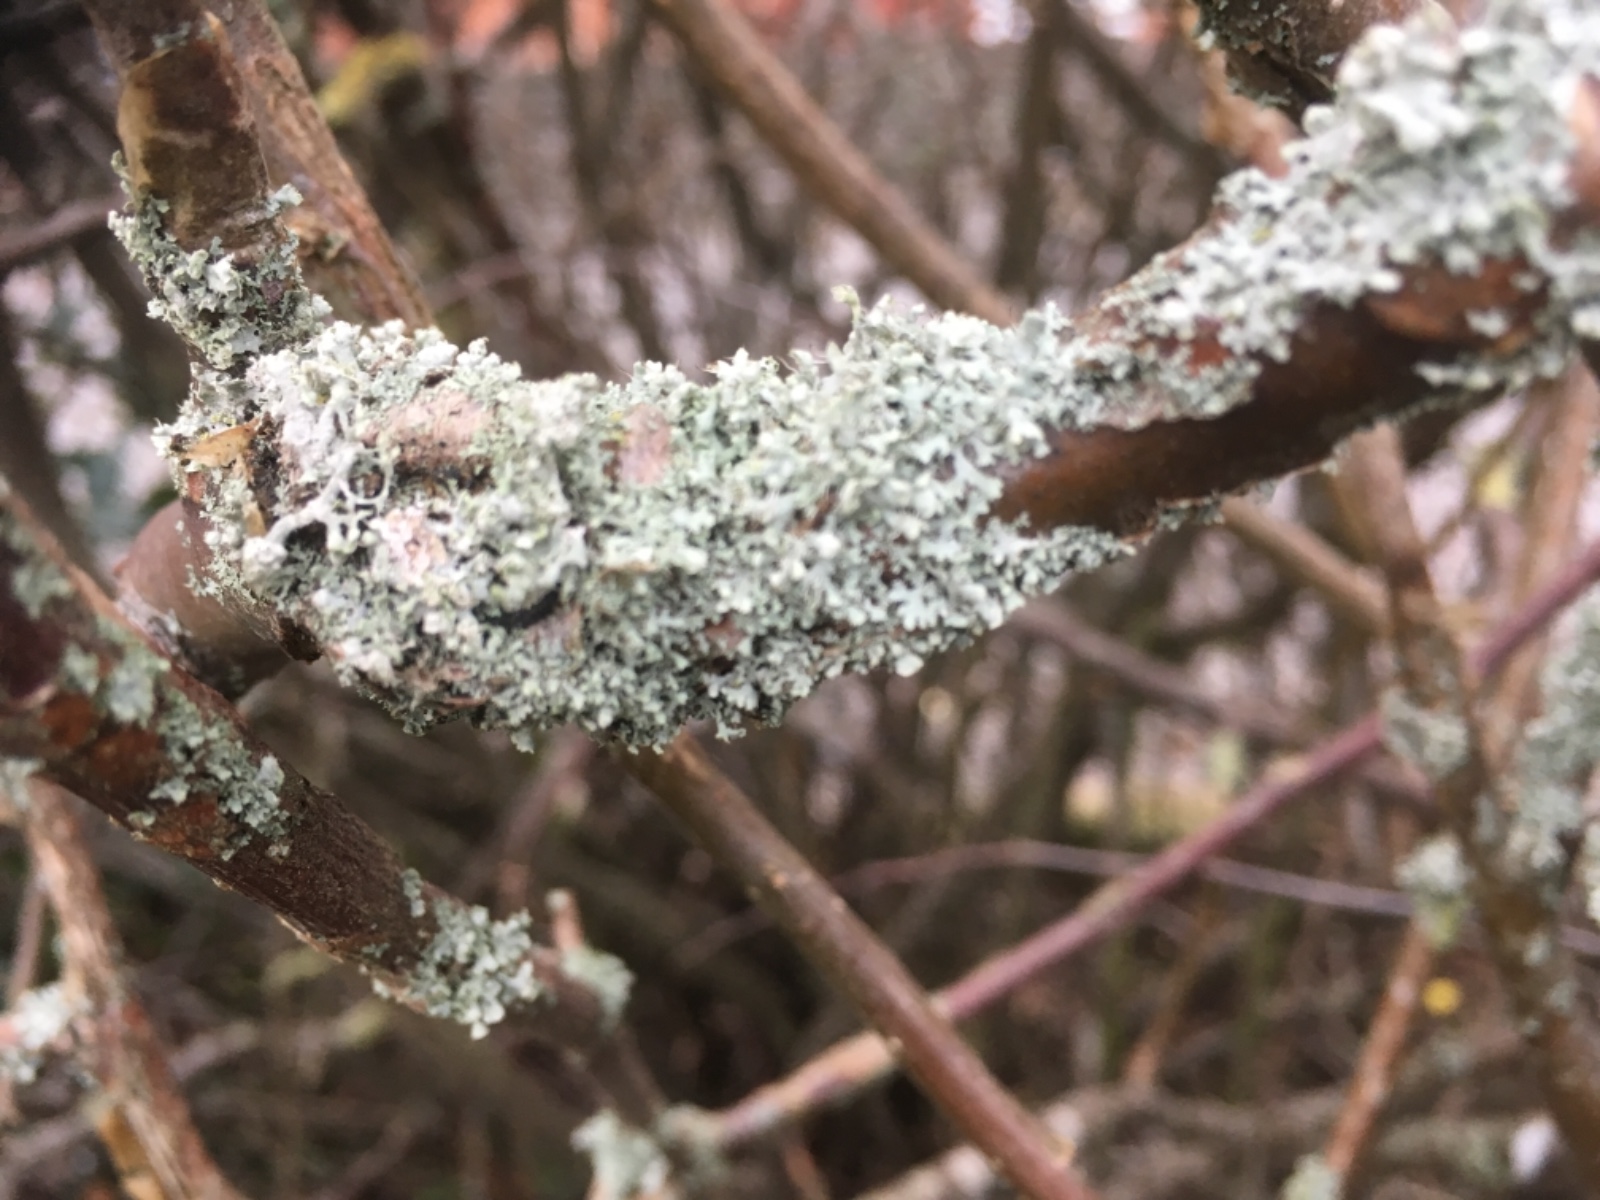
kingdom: Fungi
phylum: Ascomycota
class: Lecanoromycetes
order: Caliciales
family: Physciaceae
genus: Physcia
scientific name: Physcia adscendens
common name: hætte-rosetlav
